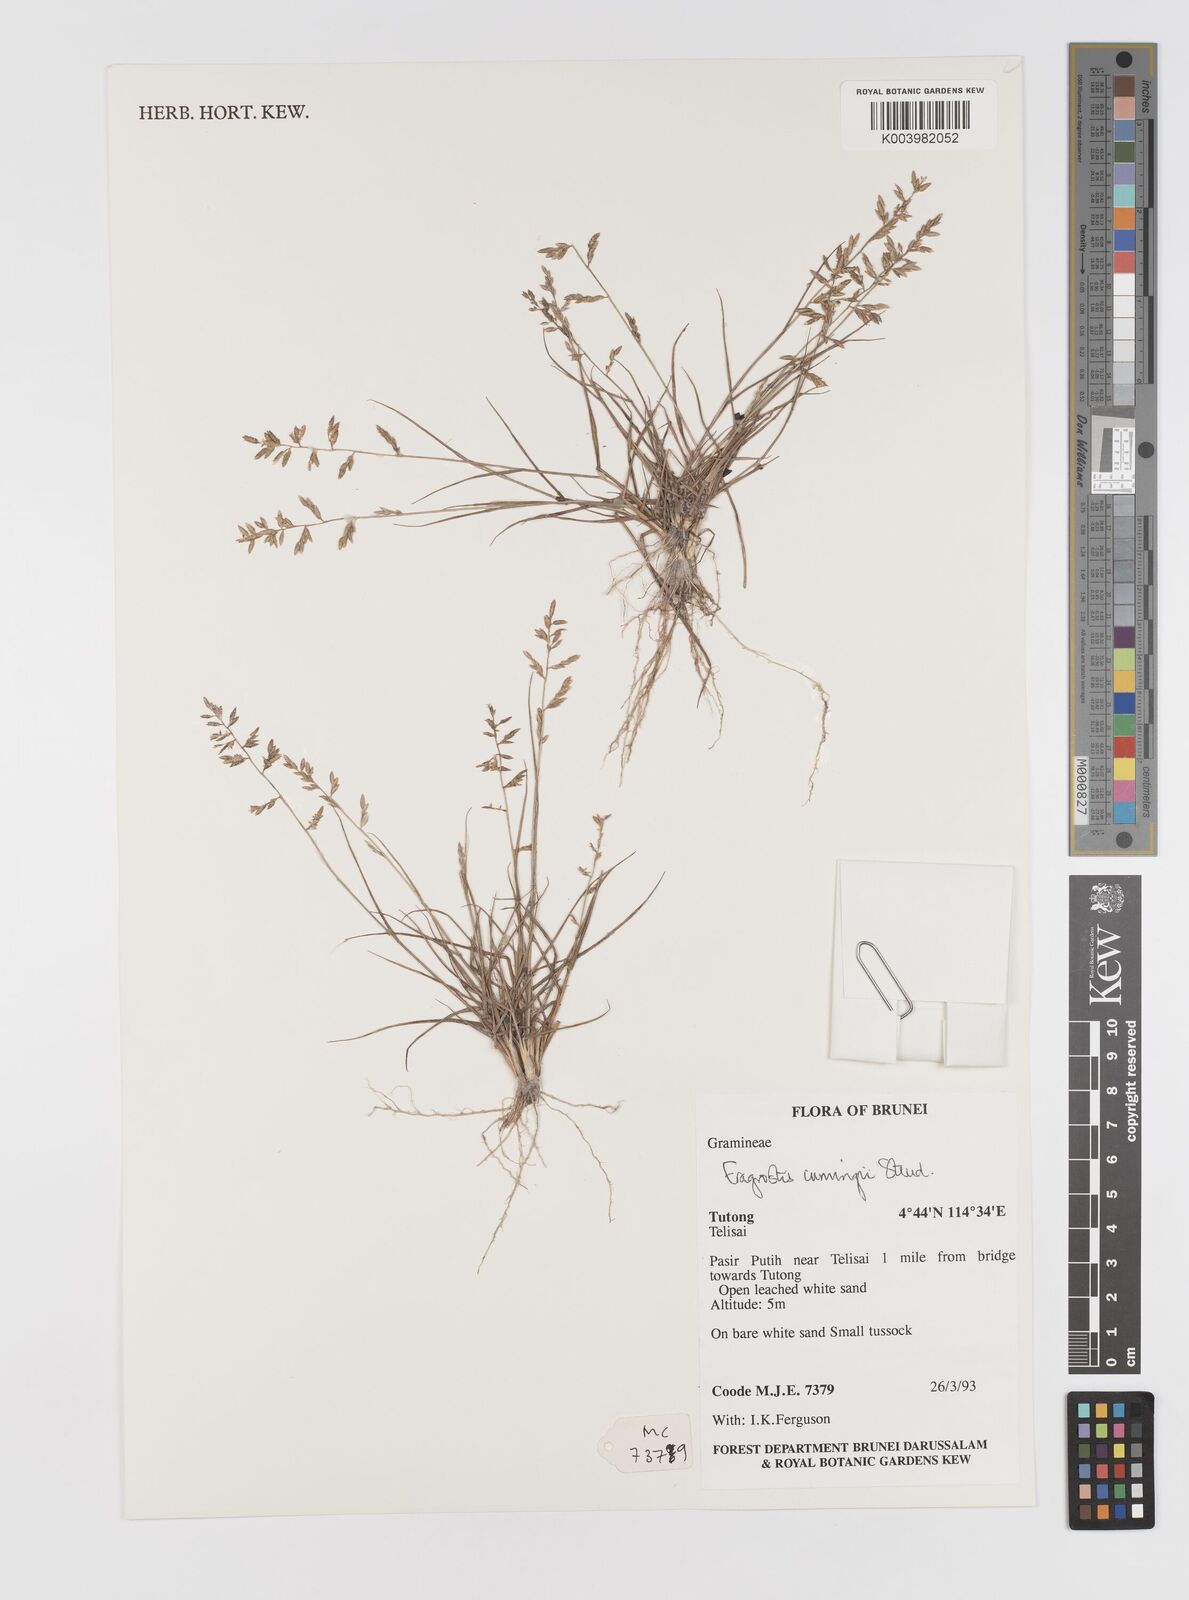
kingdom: Plantae
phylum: Tracheophyta
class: Liliopsida
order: Poales
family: Poaceae
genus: Eragrostis
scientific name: Eragrostis cumingii
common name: Cuming's lovegrass
